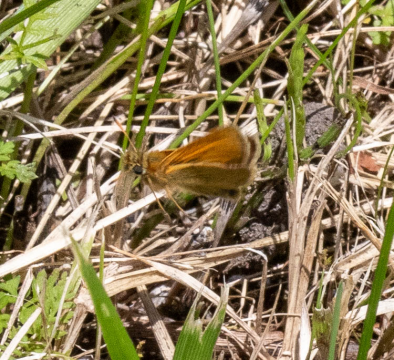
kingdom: Animalia
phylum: Arthropoda
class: Insecta
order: Lepidoptera
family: Hesperiidae
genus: Thymelicus
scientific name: Thymelicus lineola
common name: European Skipper
